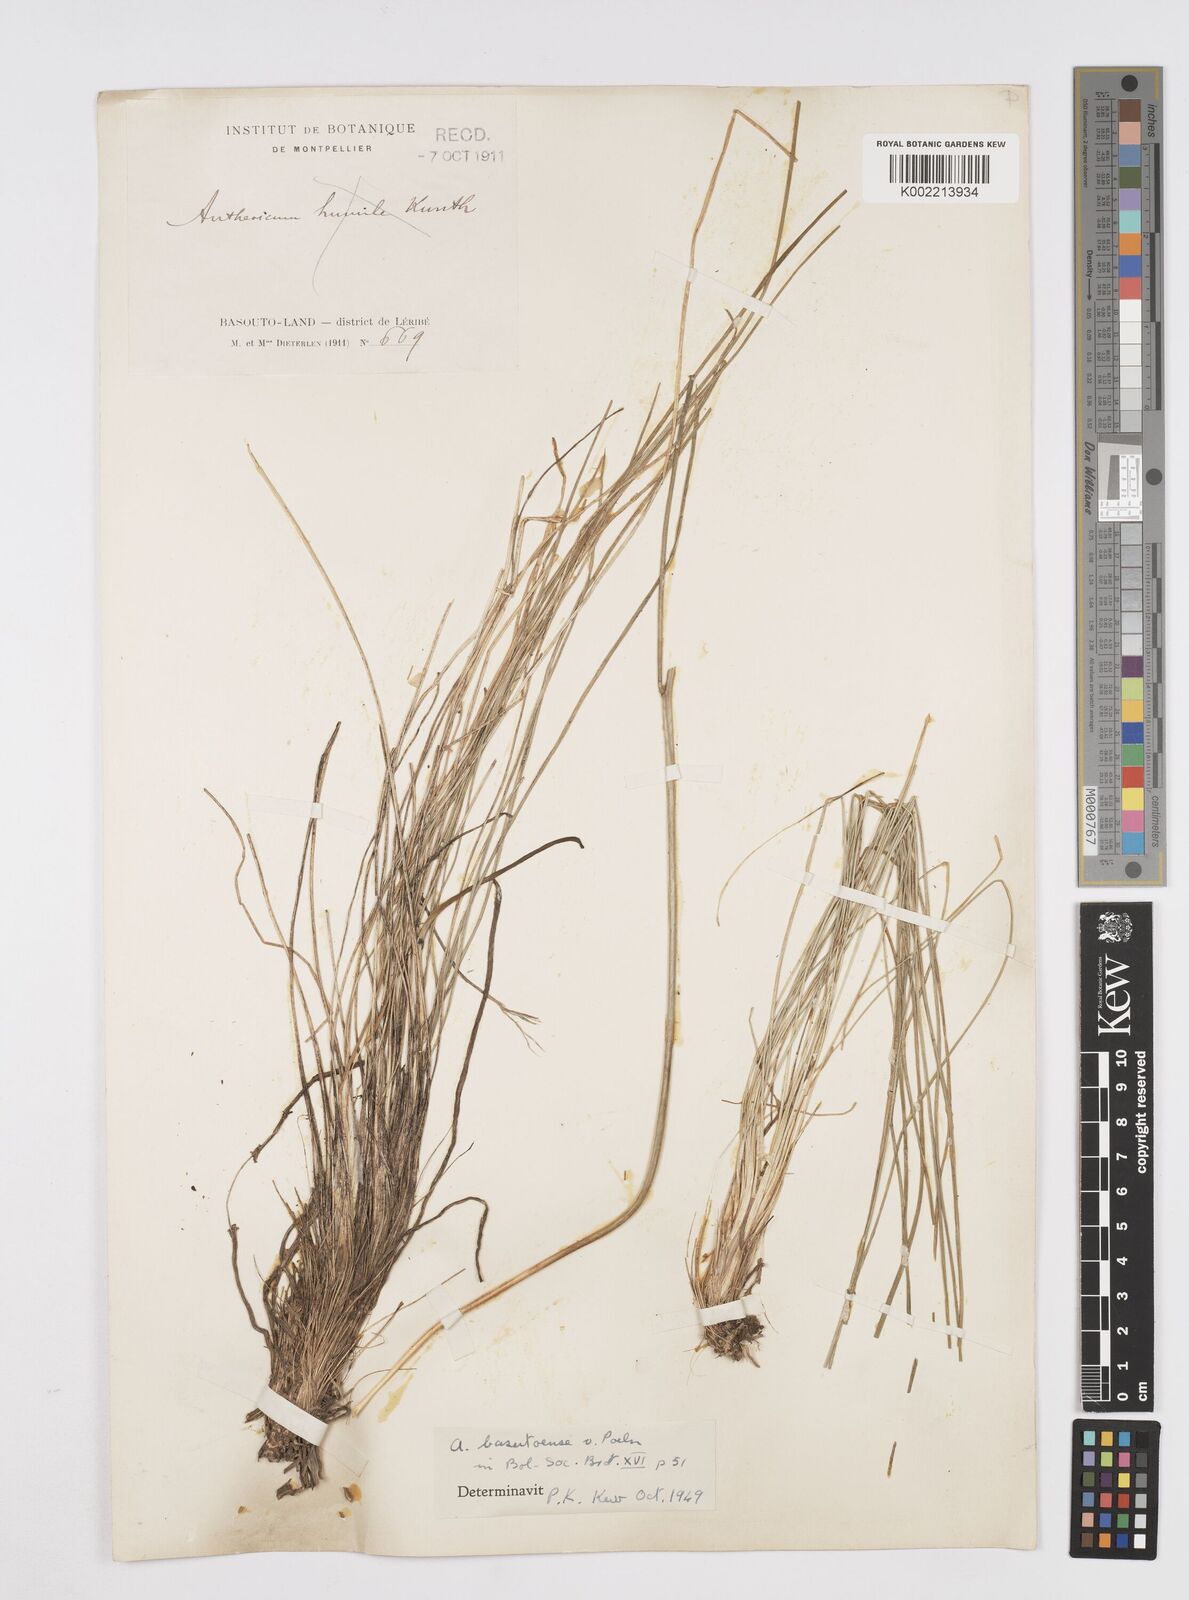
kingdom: Plantae
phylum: Tracheophyta
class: Liliopsida
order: Asparagales
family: Asphodelaceae
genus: Trachyandra
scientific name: Trachyandra asperata
